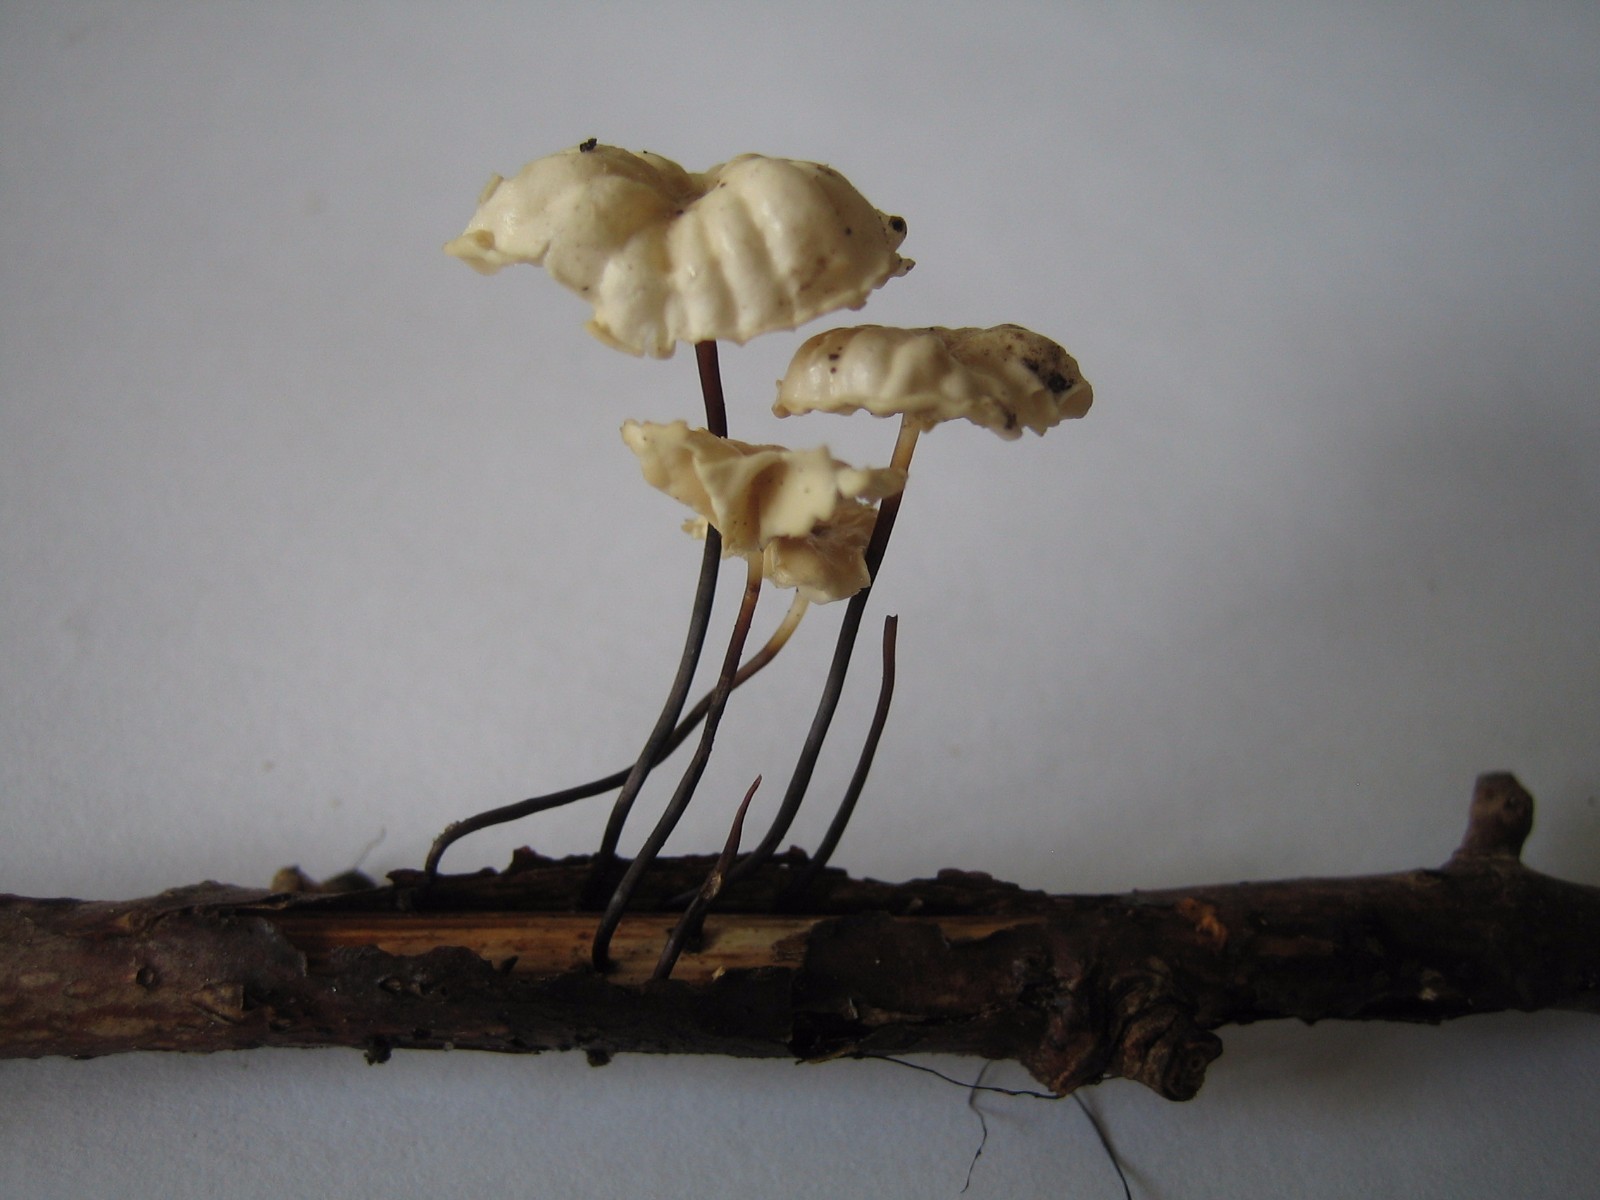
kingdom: Fungi
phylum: Basidiomycota
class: Agaricomycetes
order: Agaricales
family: Marasmiaceae
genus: Marasmius
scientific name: Marasmius rotula
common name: hjul-bruskhat
